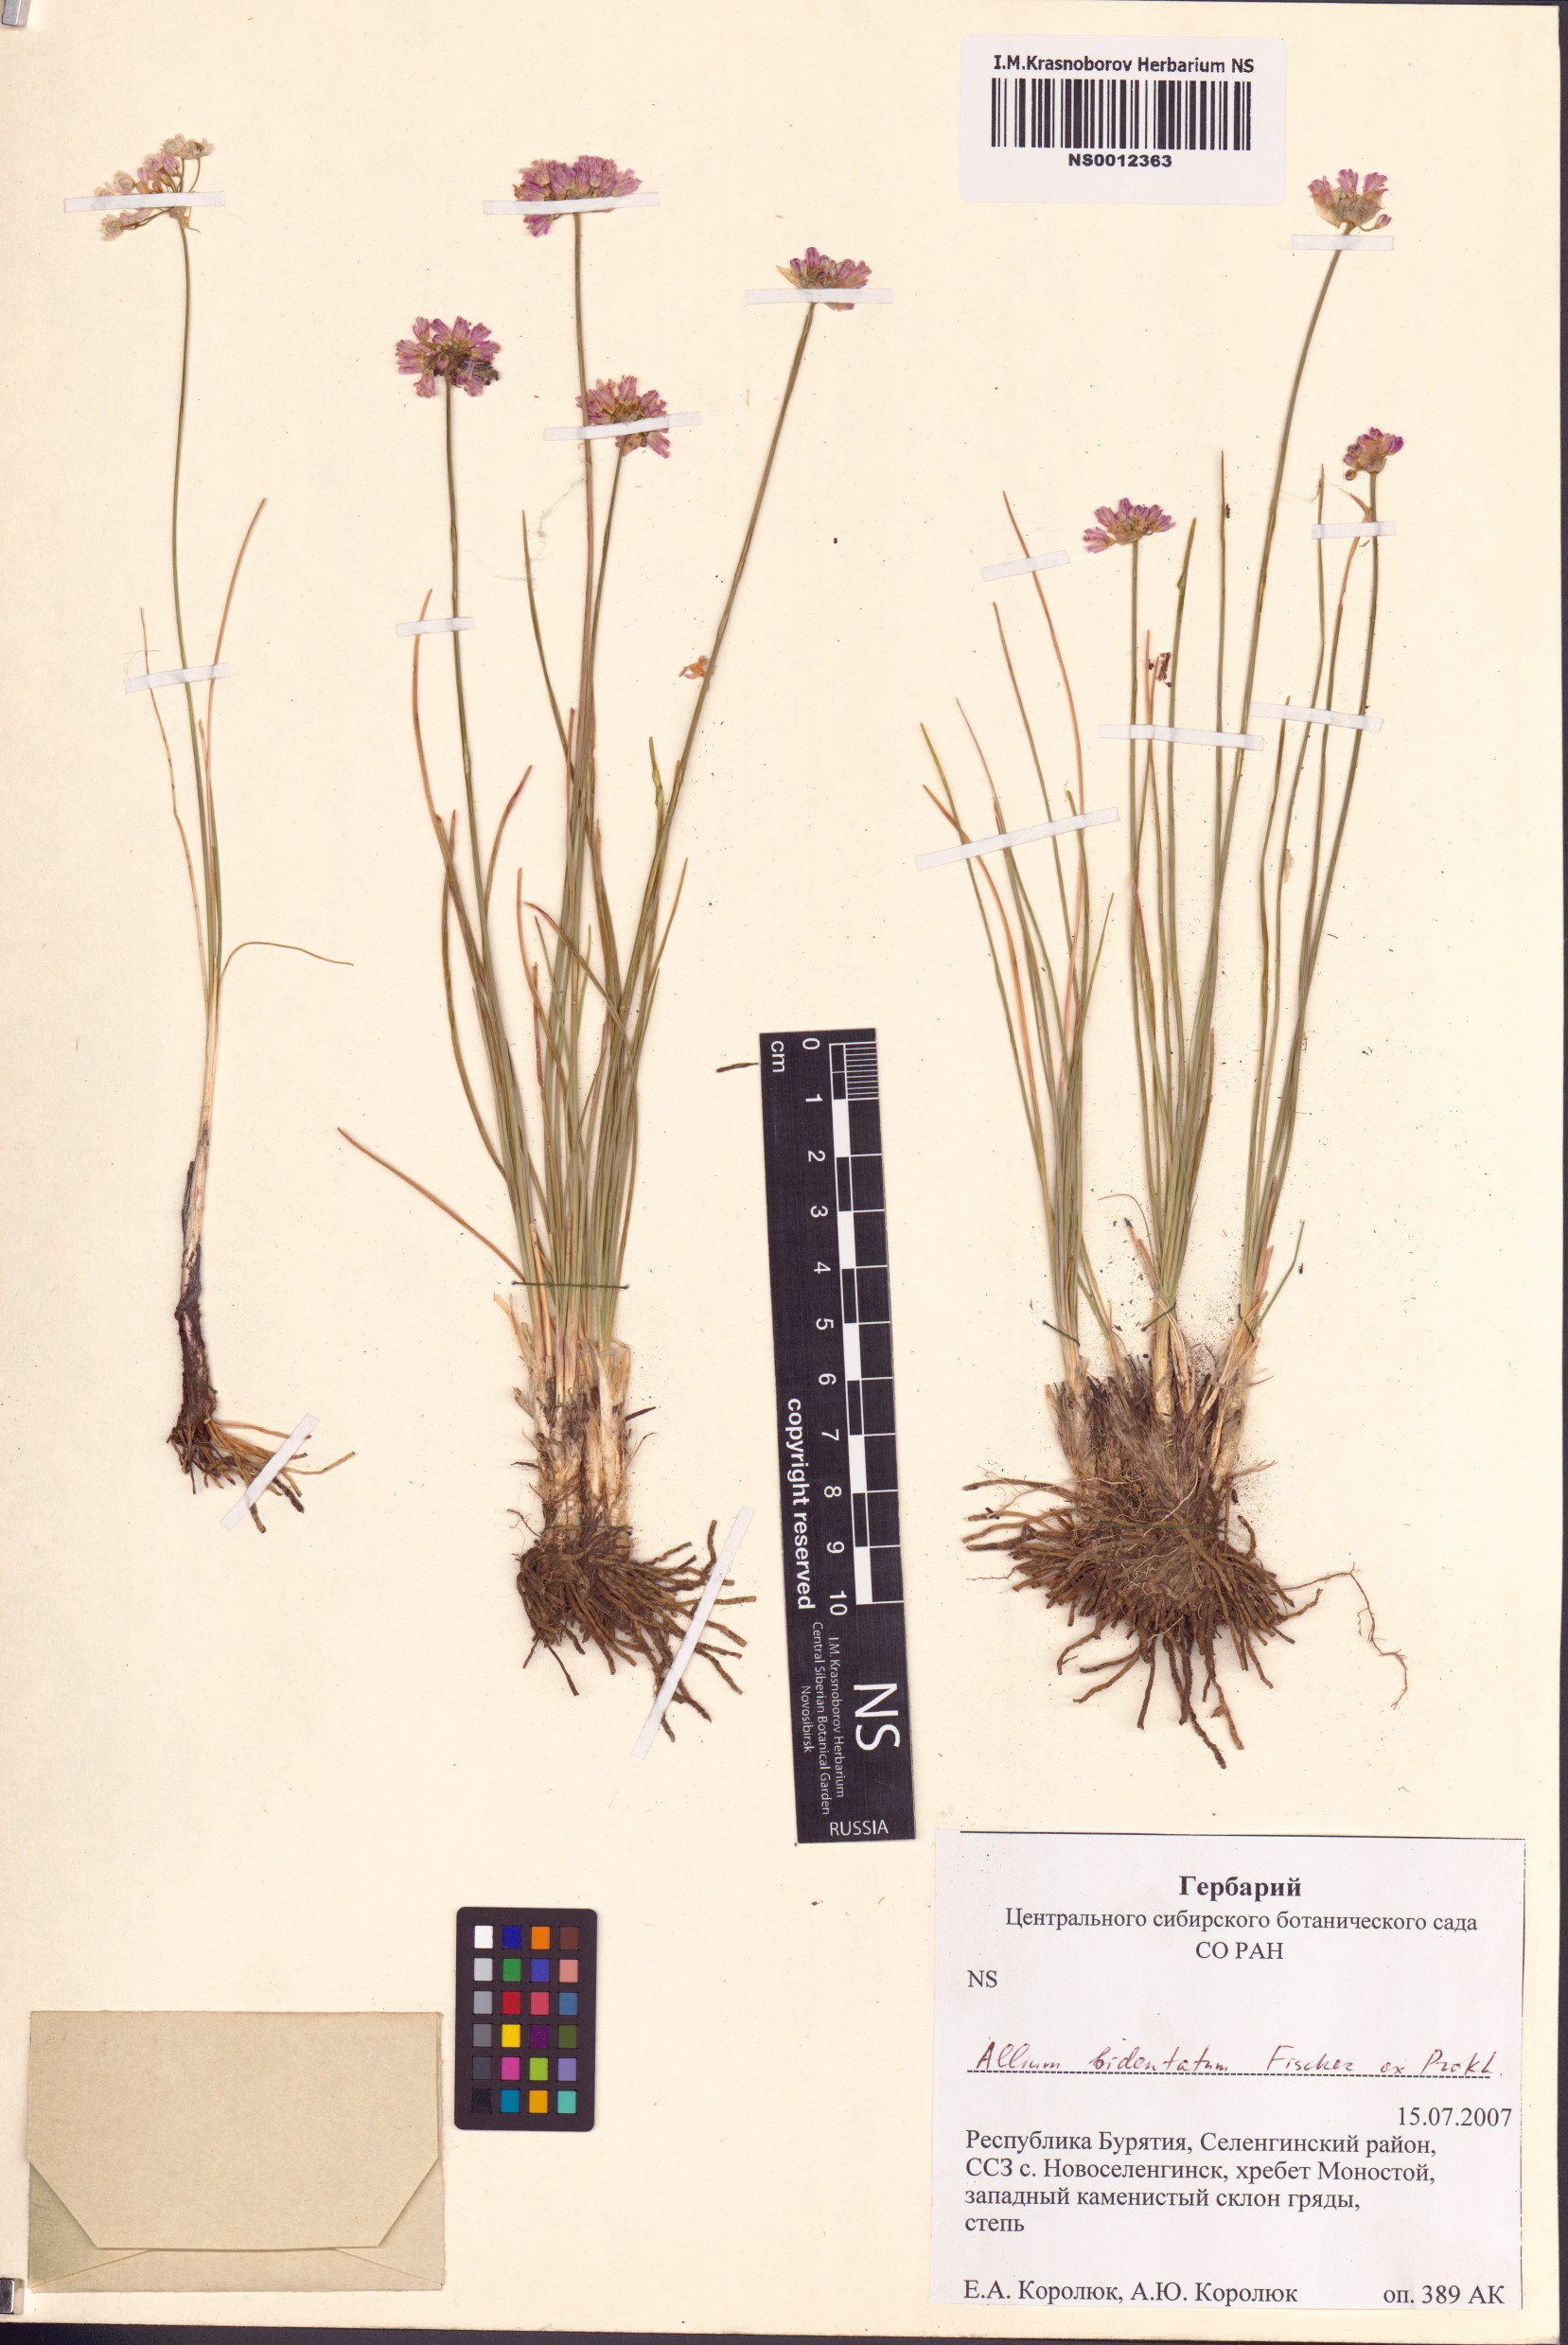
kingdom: Plantae
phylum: Tracheophyta
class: Liliopsida
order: Asparagales
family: Amaryllidaceae
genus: Allium
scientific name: Allium bidentatum
